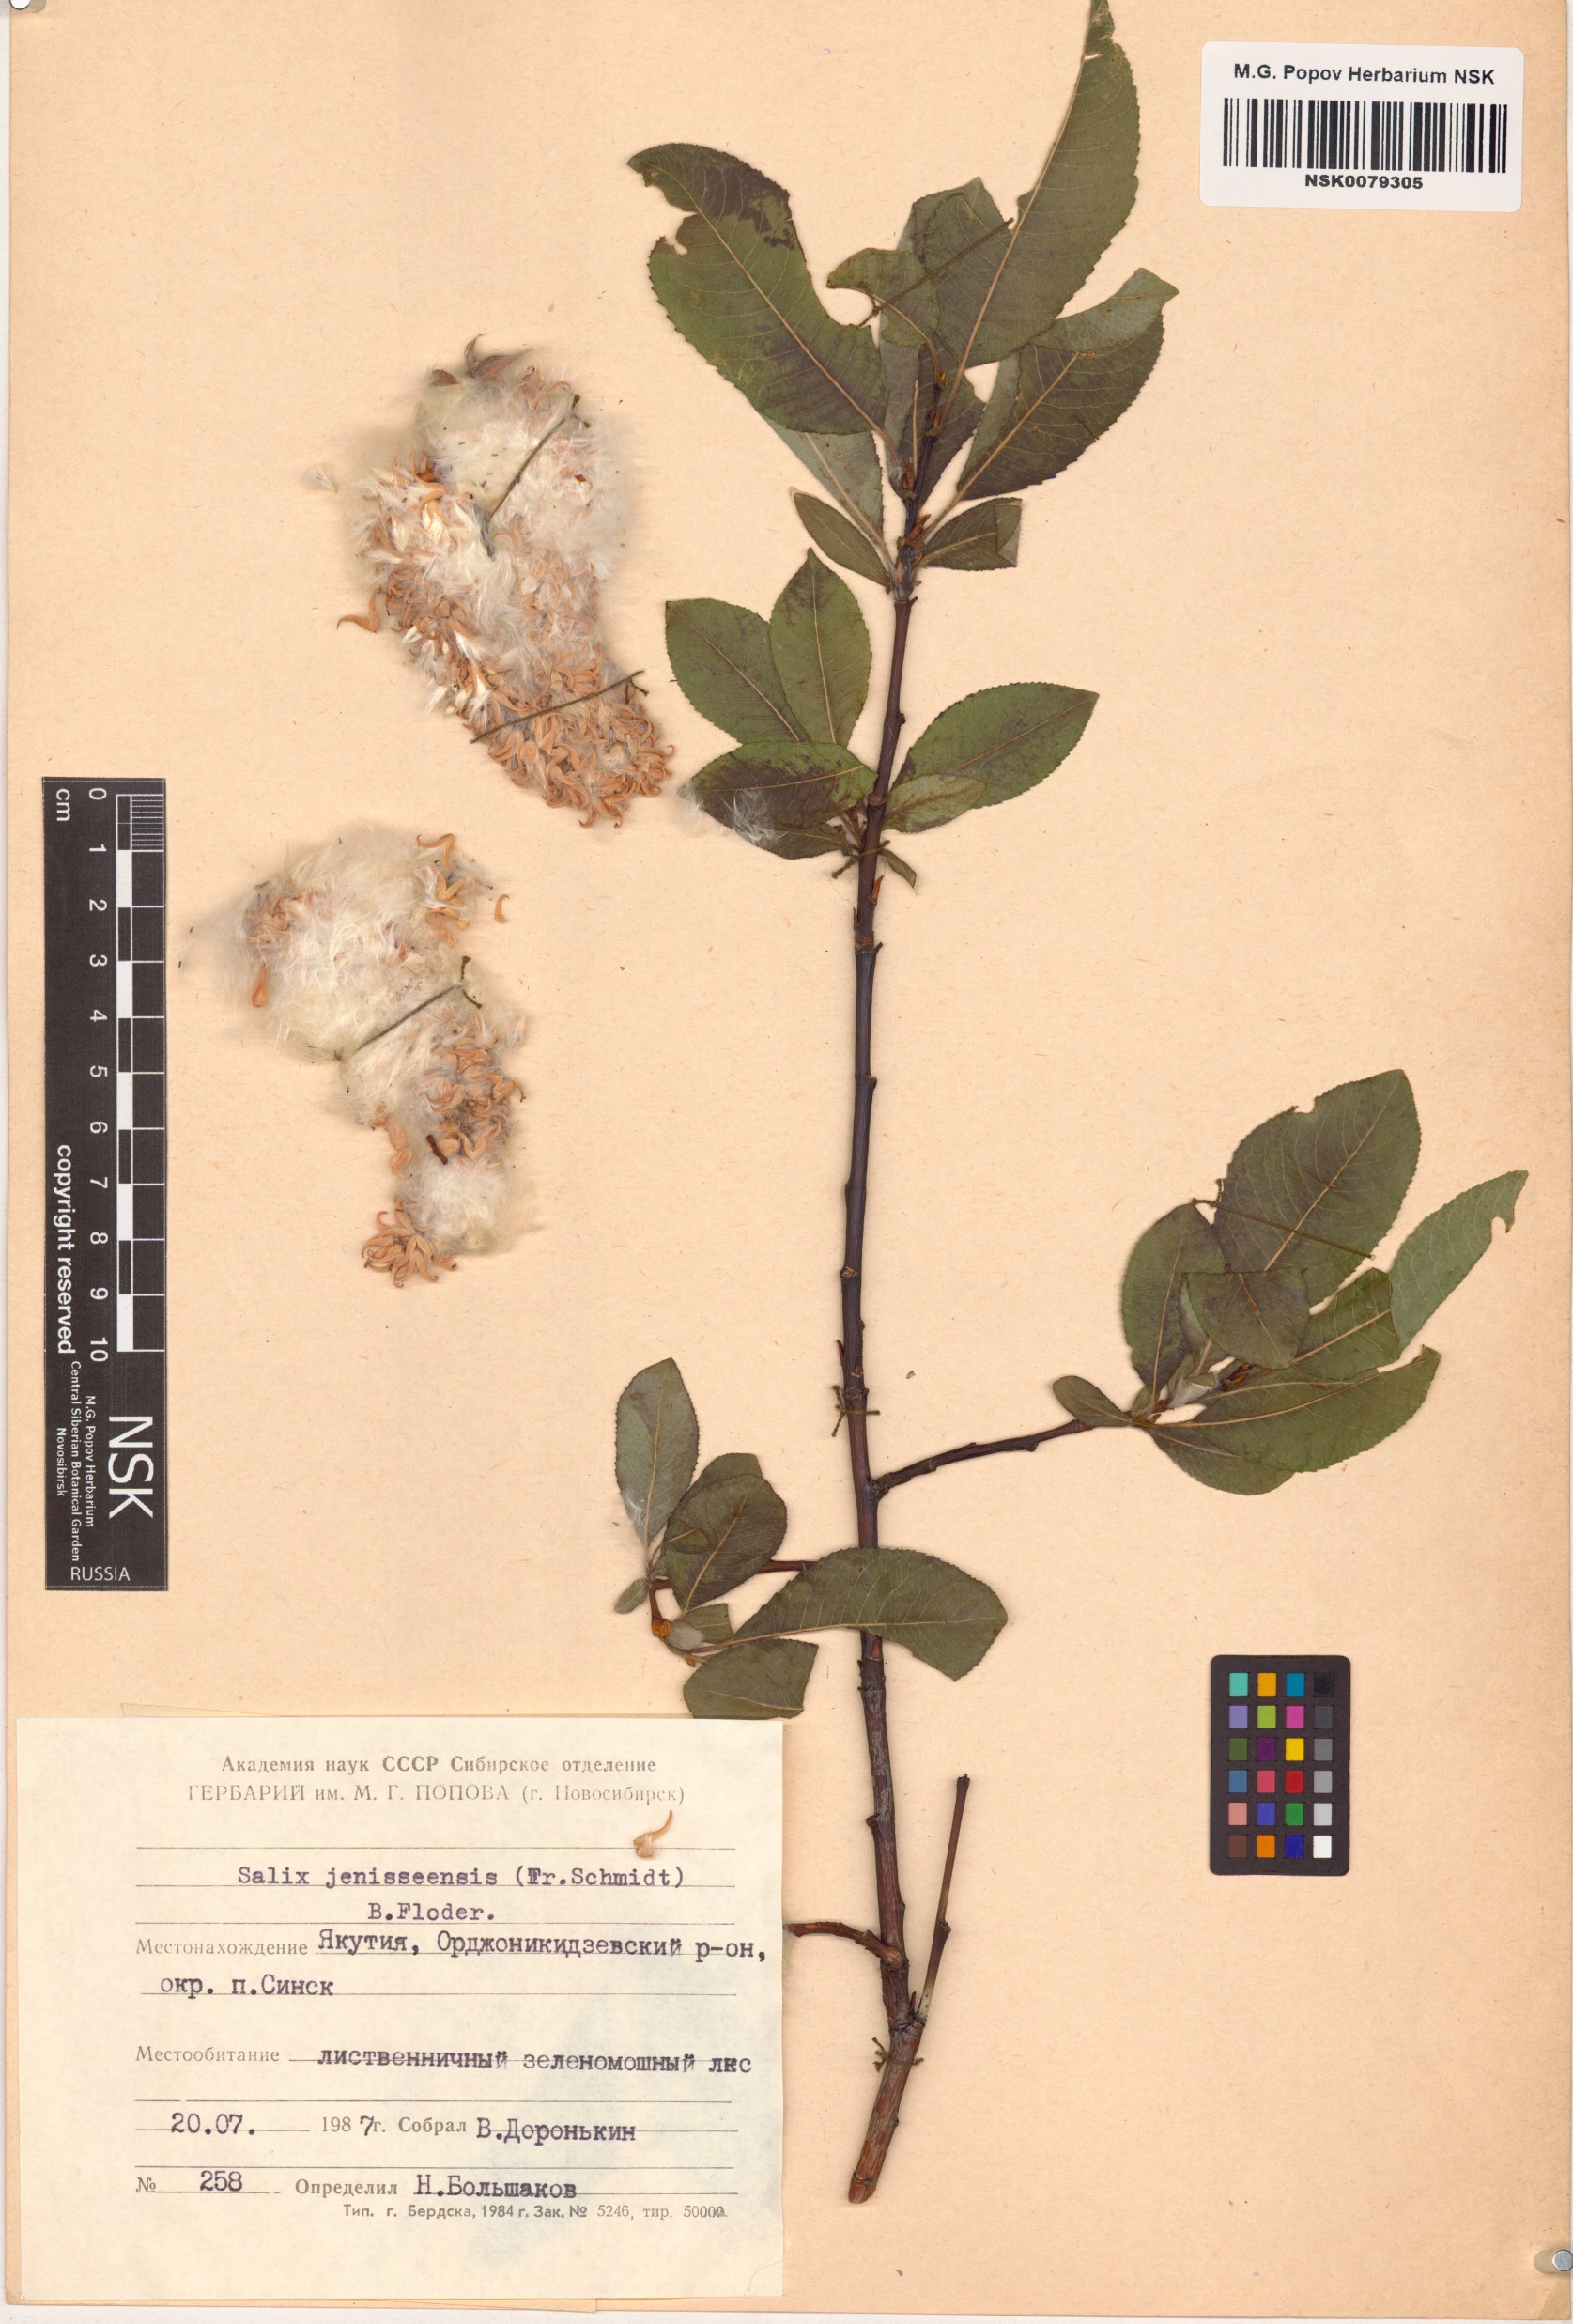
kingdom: Plantae
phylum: Tracheophyta
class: Magnoliopsida
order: Malpighiales
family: Salicaceae
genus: Salix
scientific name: Salix jenisseensis
